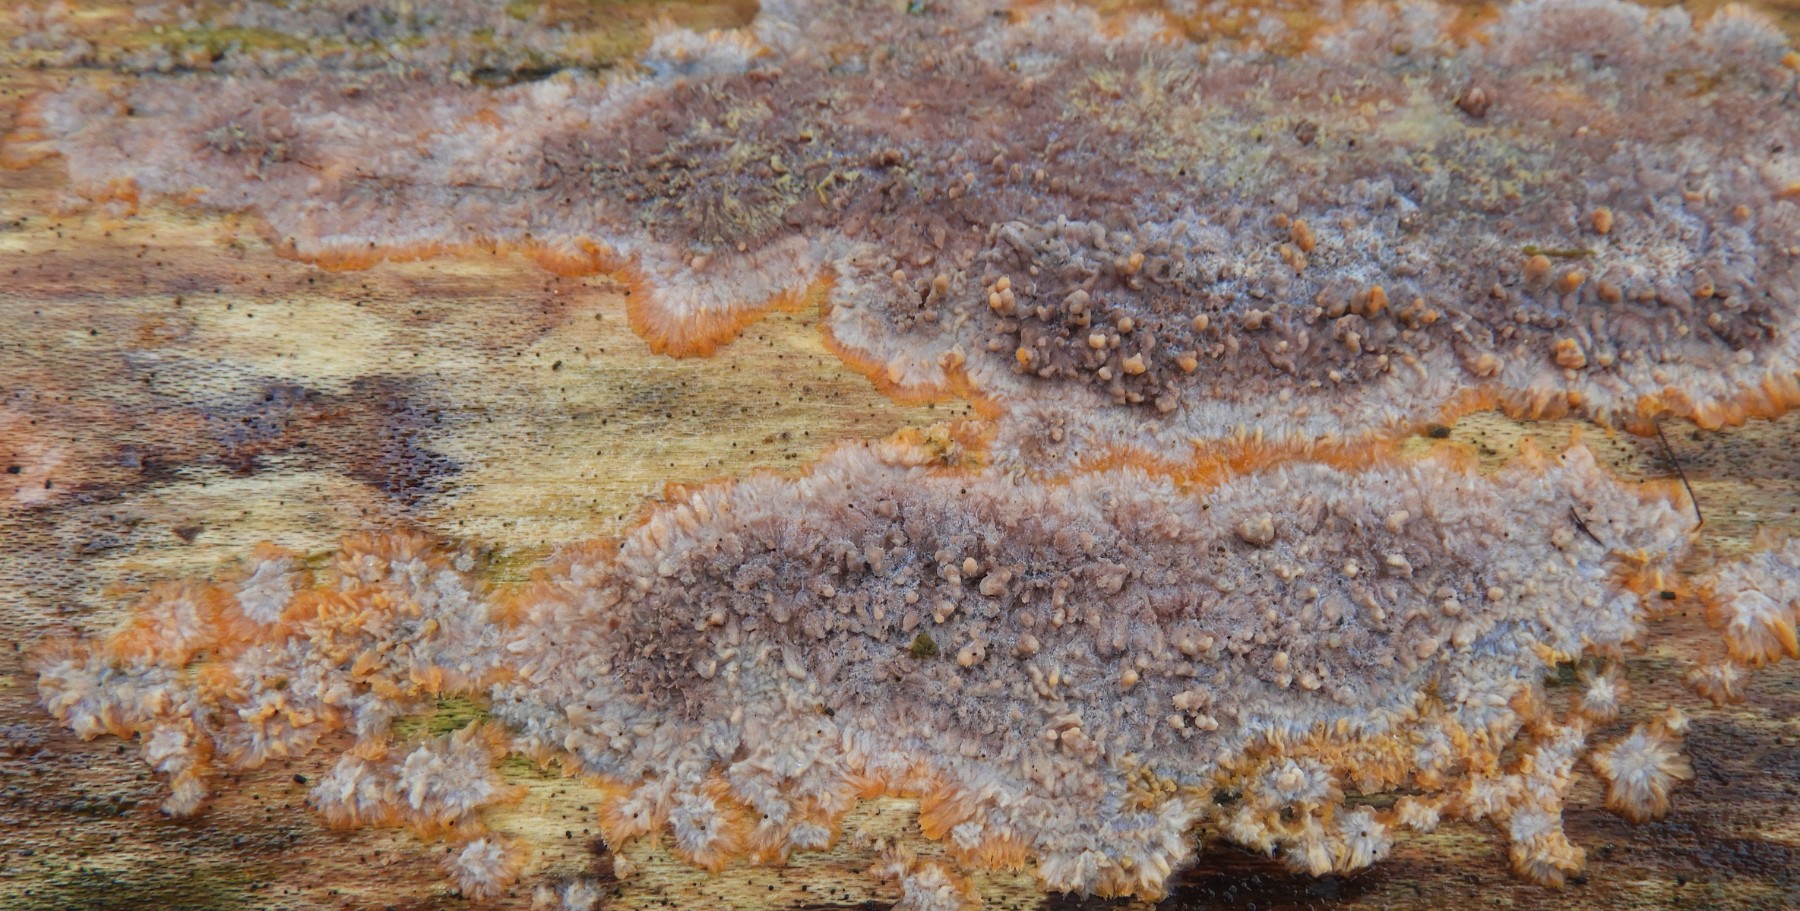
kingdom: Fungi
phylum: Basidiomycota
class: Agaricomycetes
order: Polyporales
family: Meruliaceae
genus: Phlebia
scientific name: Phlebia radiata
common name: stråle-åresvamp
